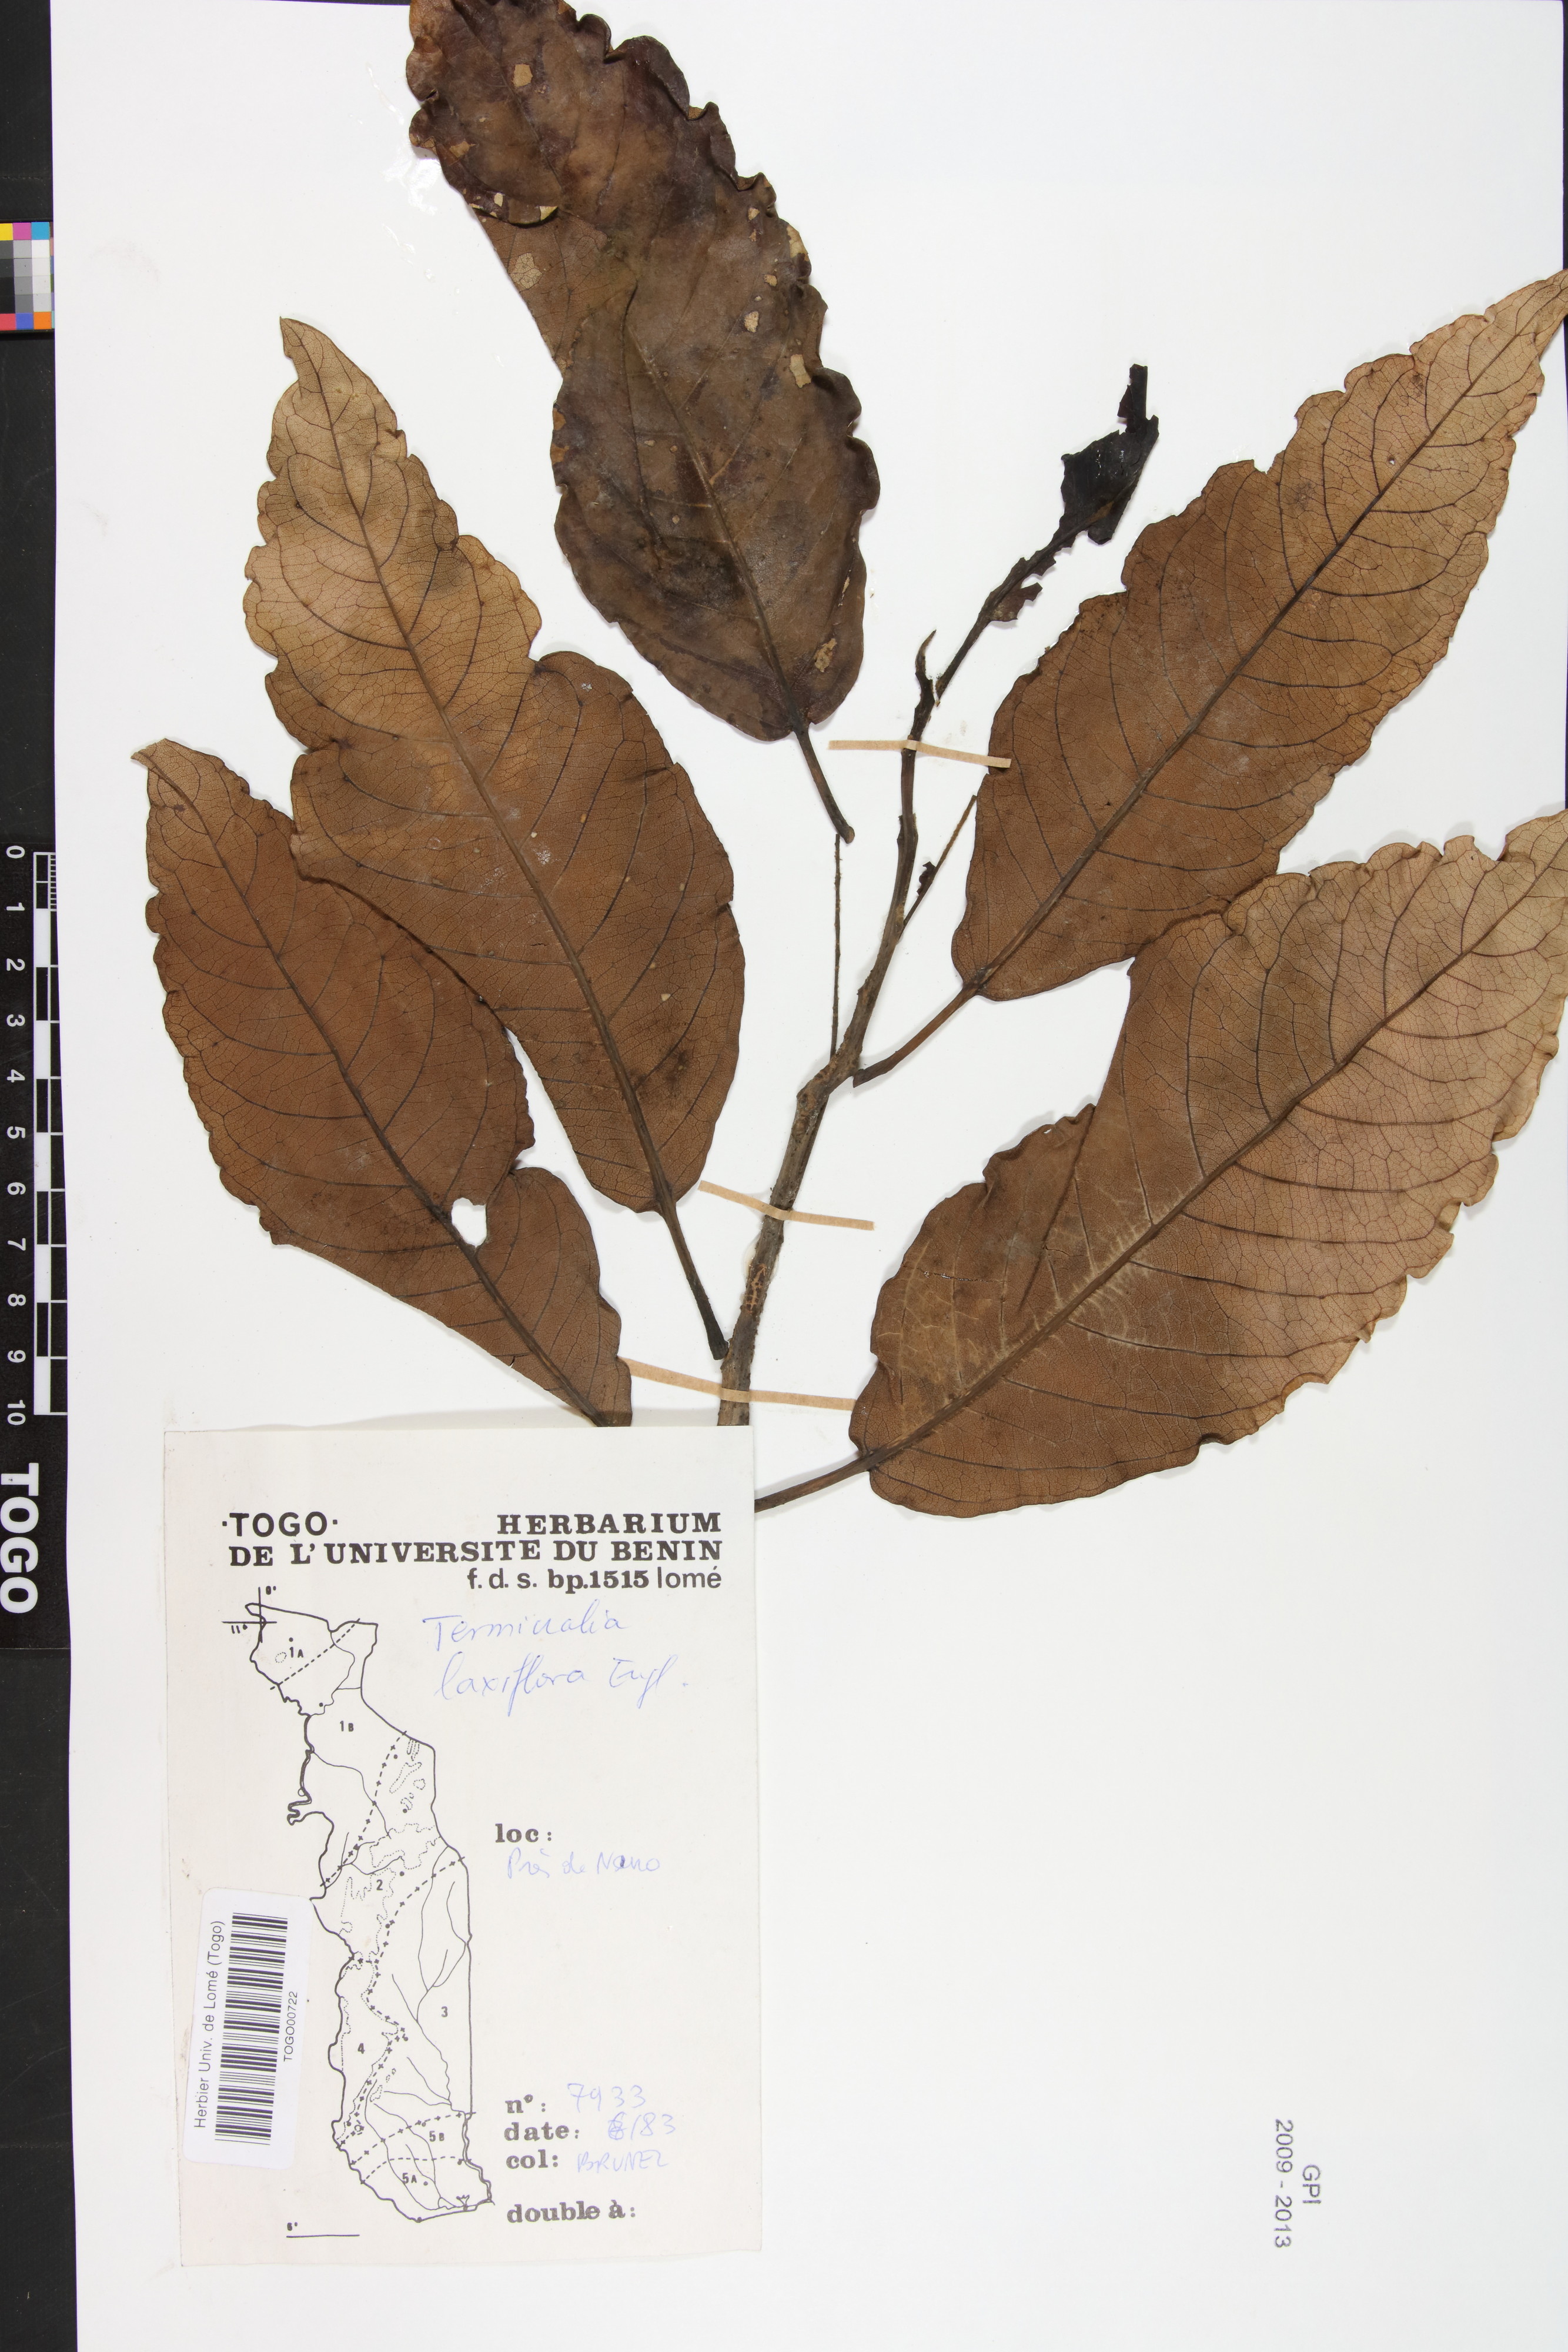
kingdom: Plantae
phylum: Tracheophyta
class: Magnoliopsida
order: Myrtales
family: Combretaceae
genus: Terminalia
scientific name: Terminalia laxiflora
